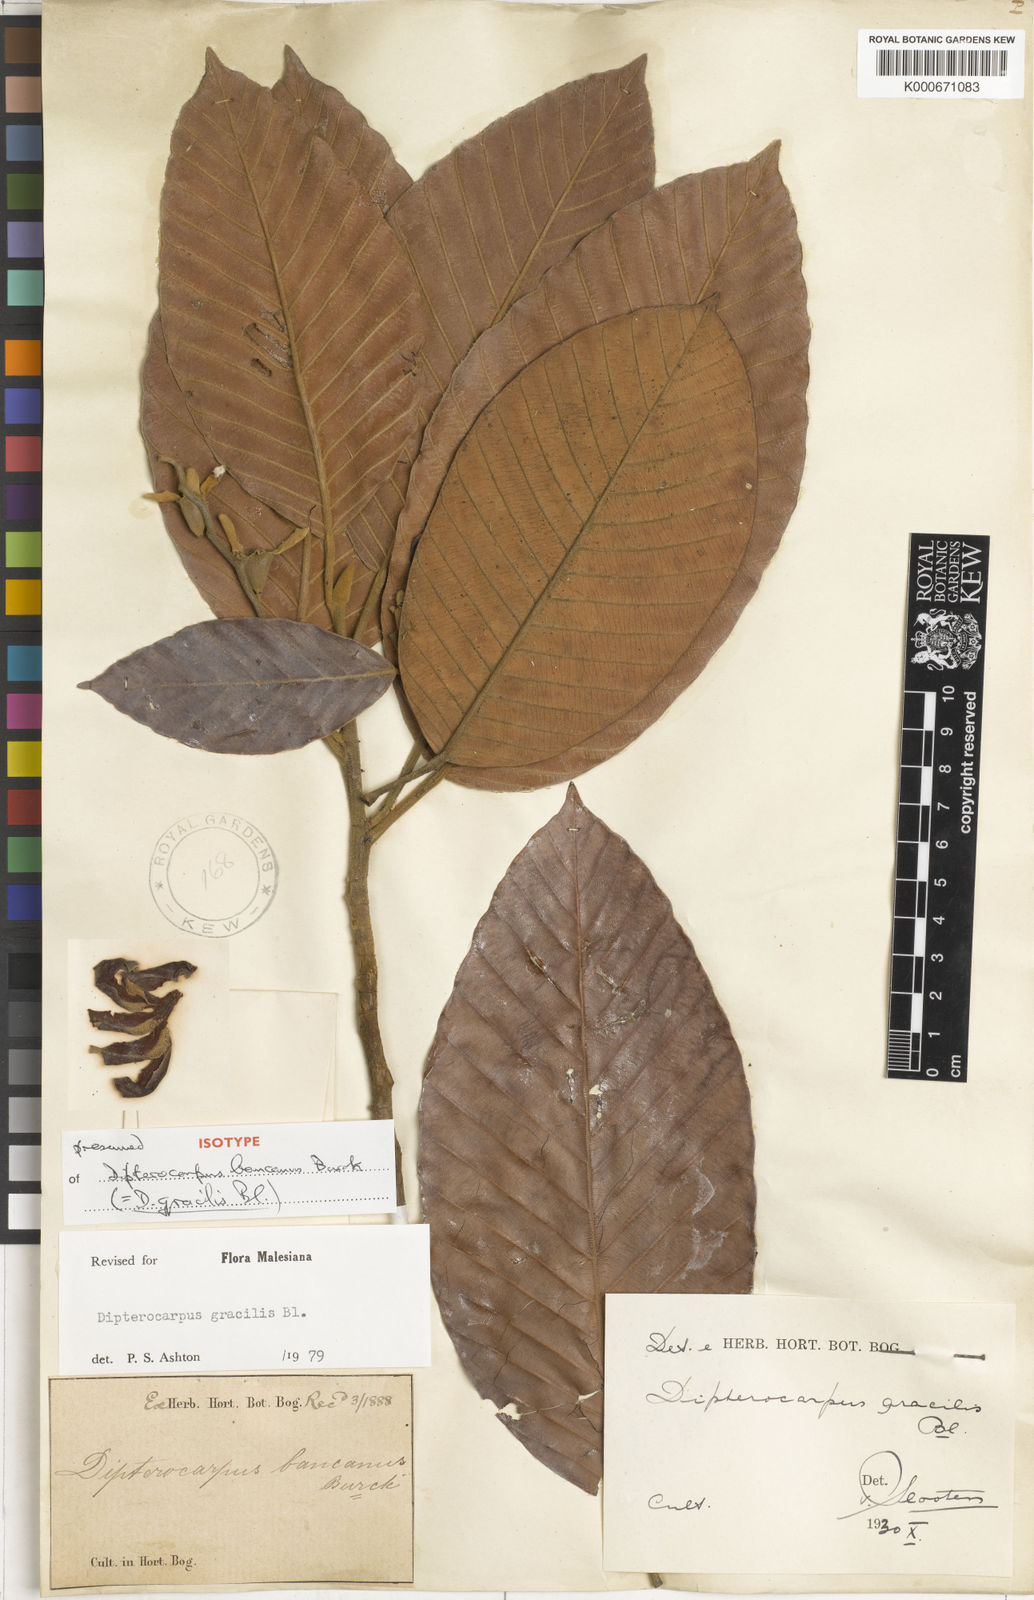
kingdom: Plantae
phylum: Tracheophyta
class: Magnoliopsida
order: Malvales
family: Dipterocarpaceae
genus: Dipterocarpus
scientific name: Dipterocarpus gracilis
